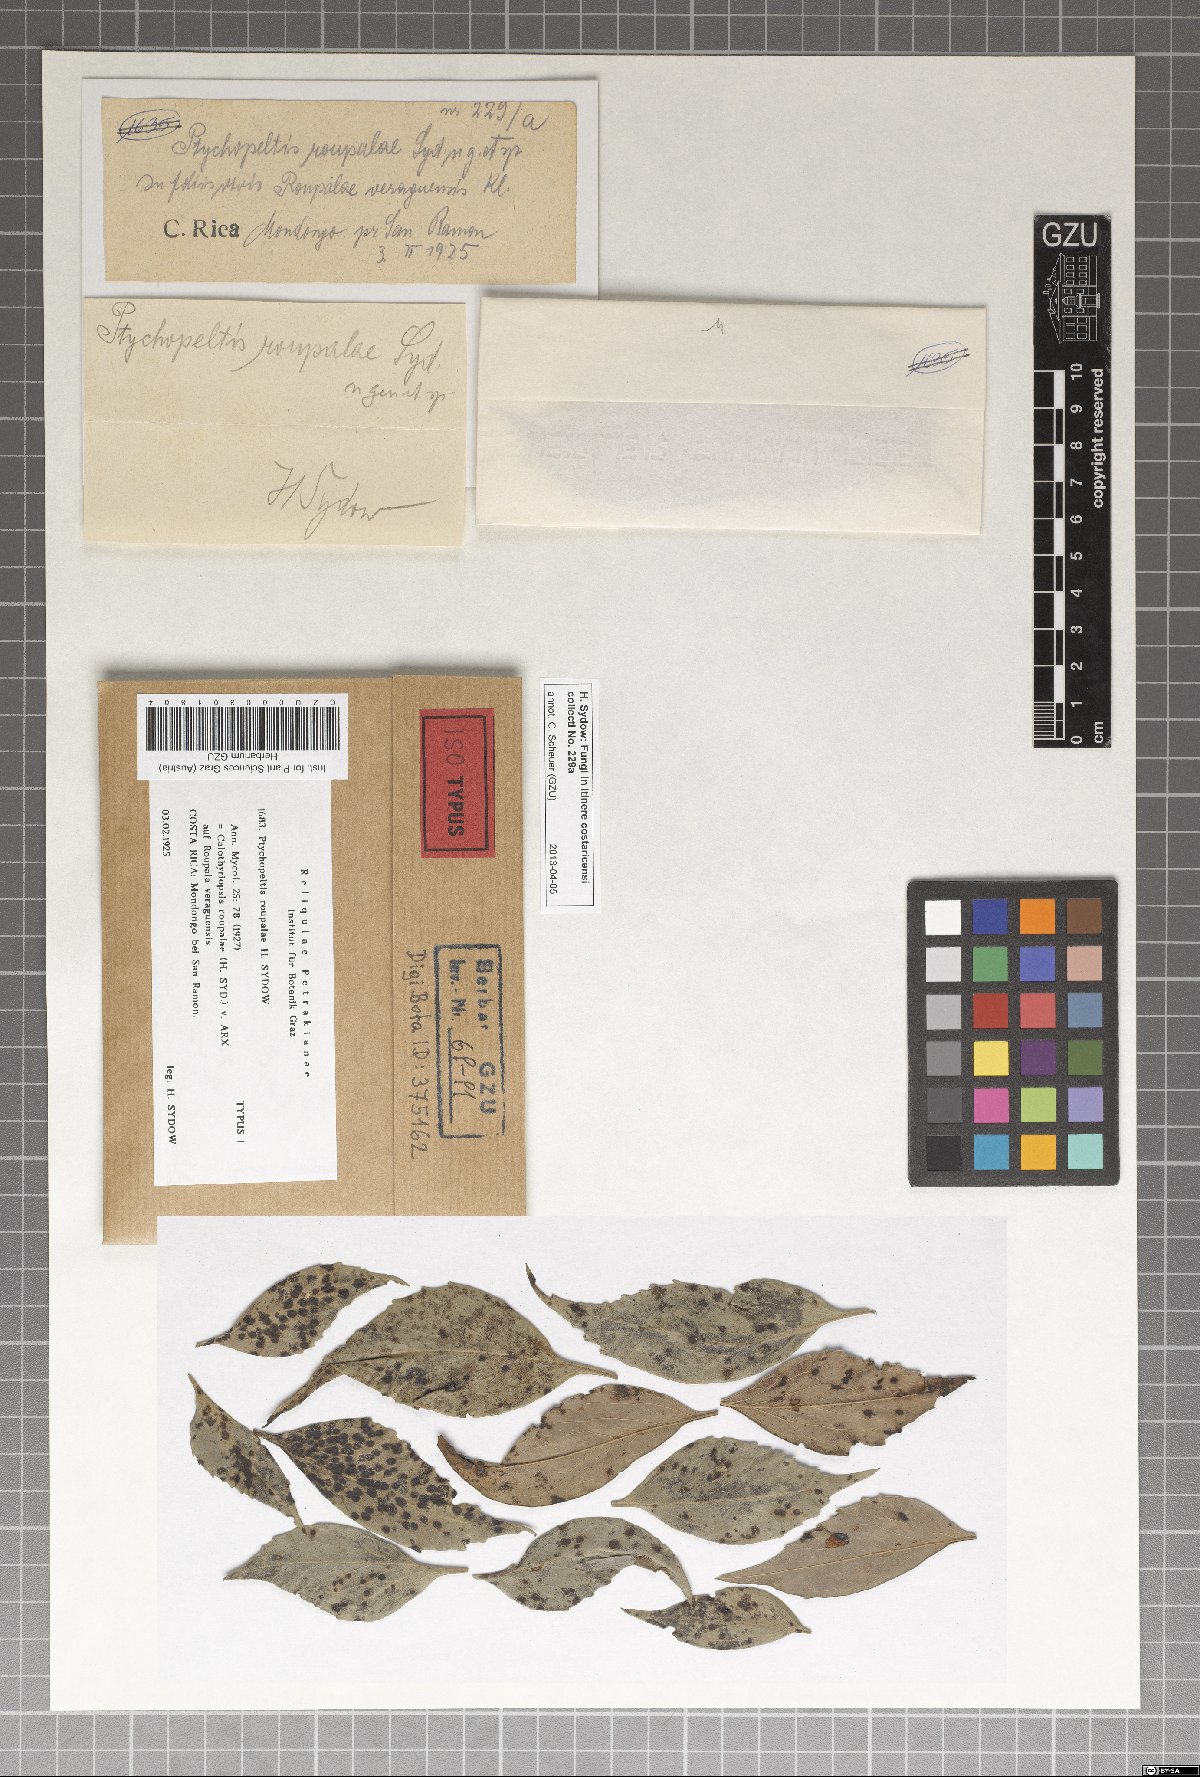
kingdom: Fungi
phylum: Ascomycota
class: Dothideomycetes
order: Microthyriales
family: Microthyriaceae
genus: Calothyriopsis
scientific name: Calothyriopsis roupalae
